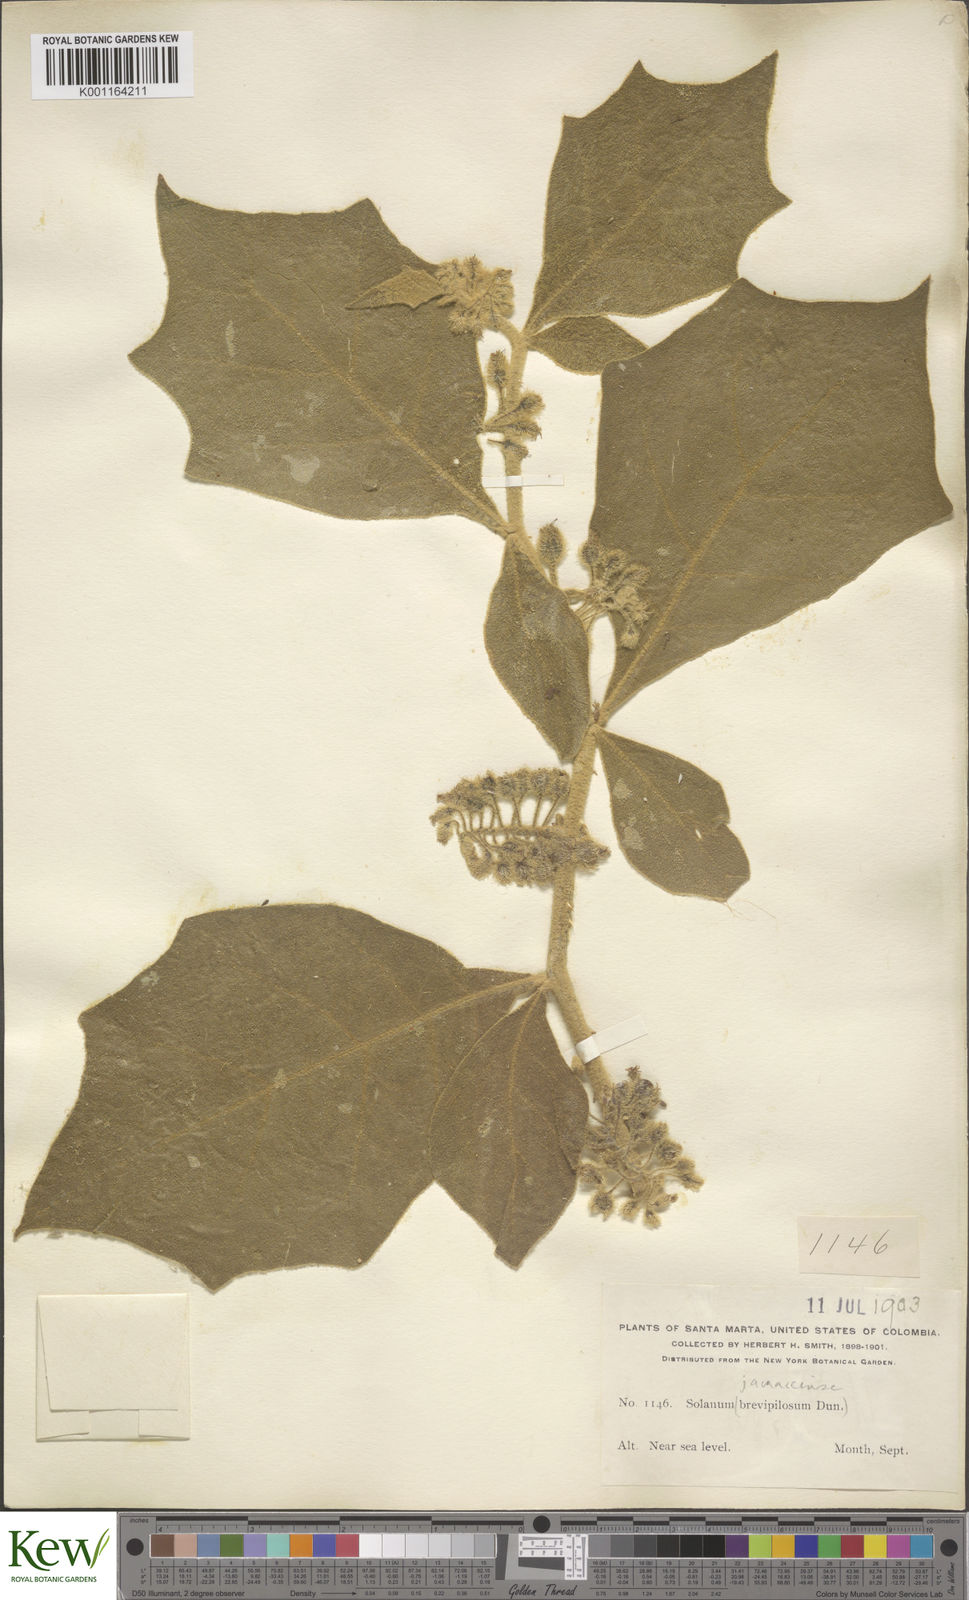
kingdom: Plantae
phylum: Tracheophyta
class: Magnoliopsida
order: Solanales
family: Solanaceae
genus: Solanum
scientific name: Solanum jamaicense
